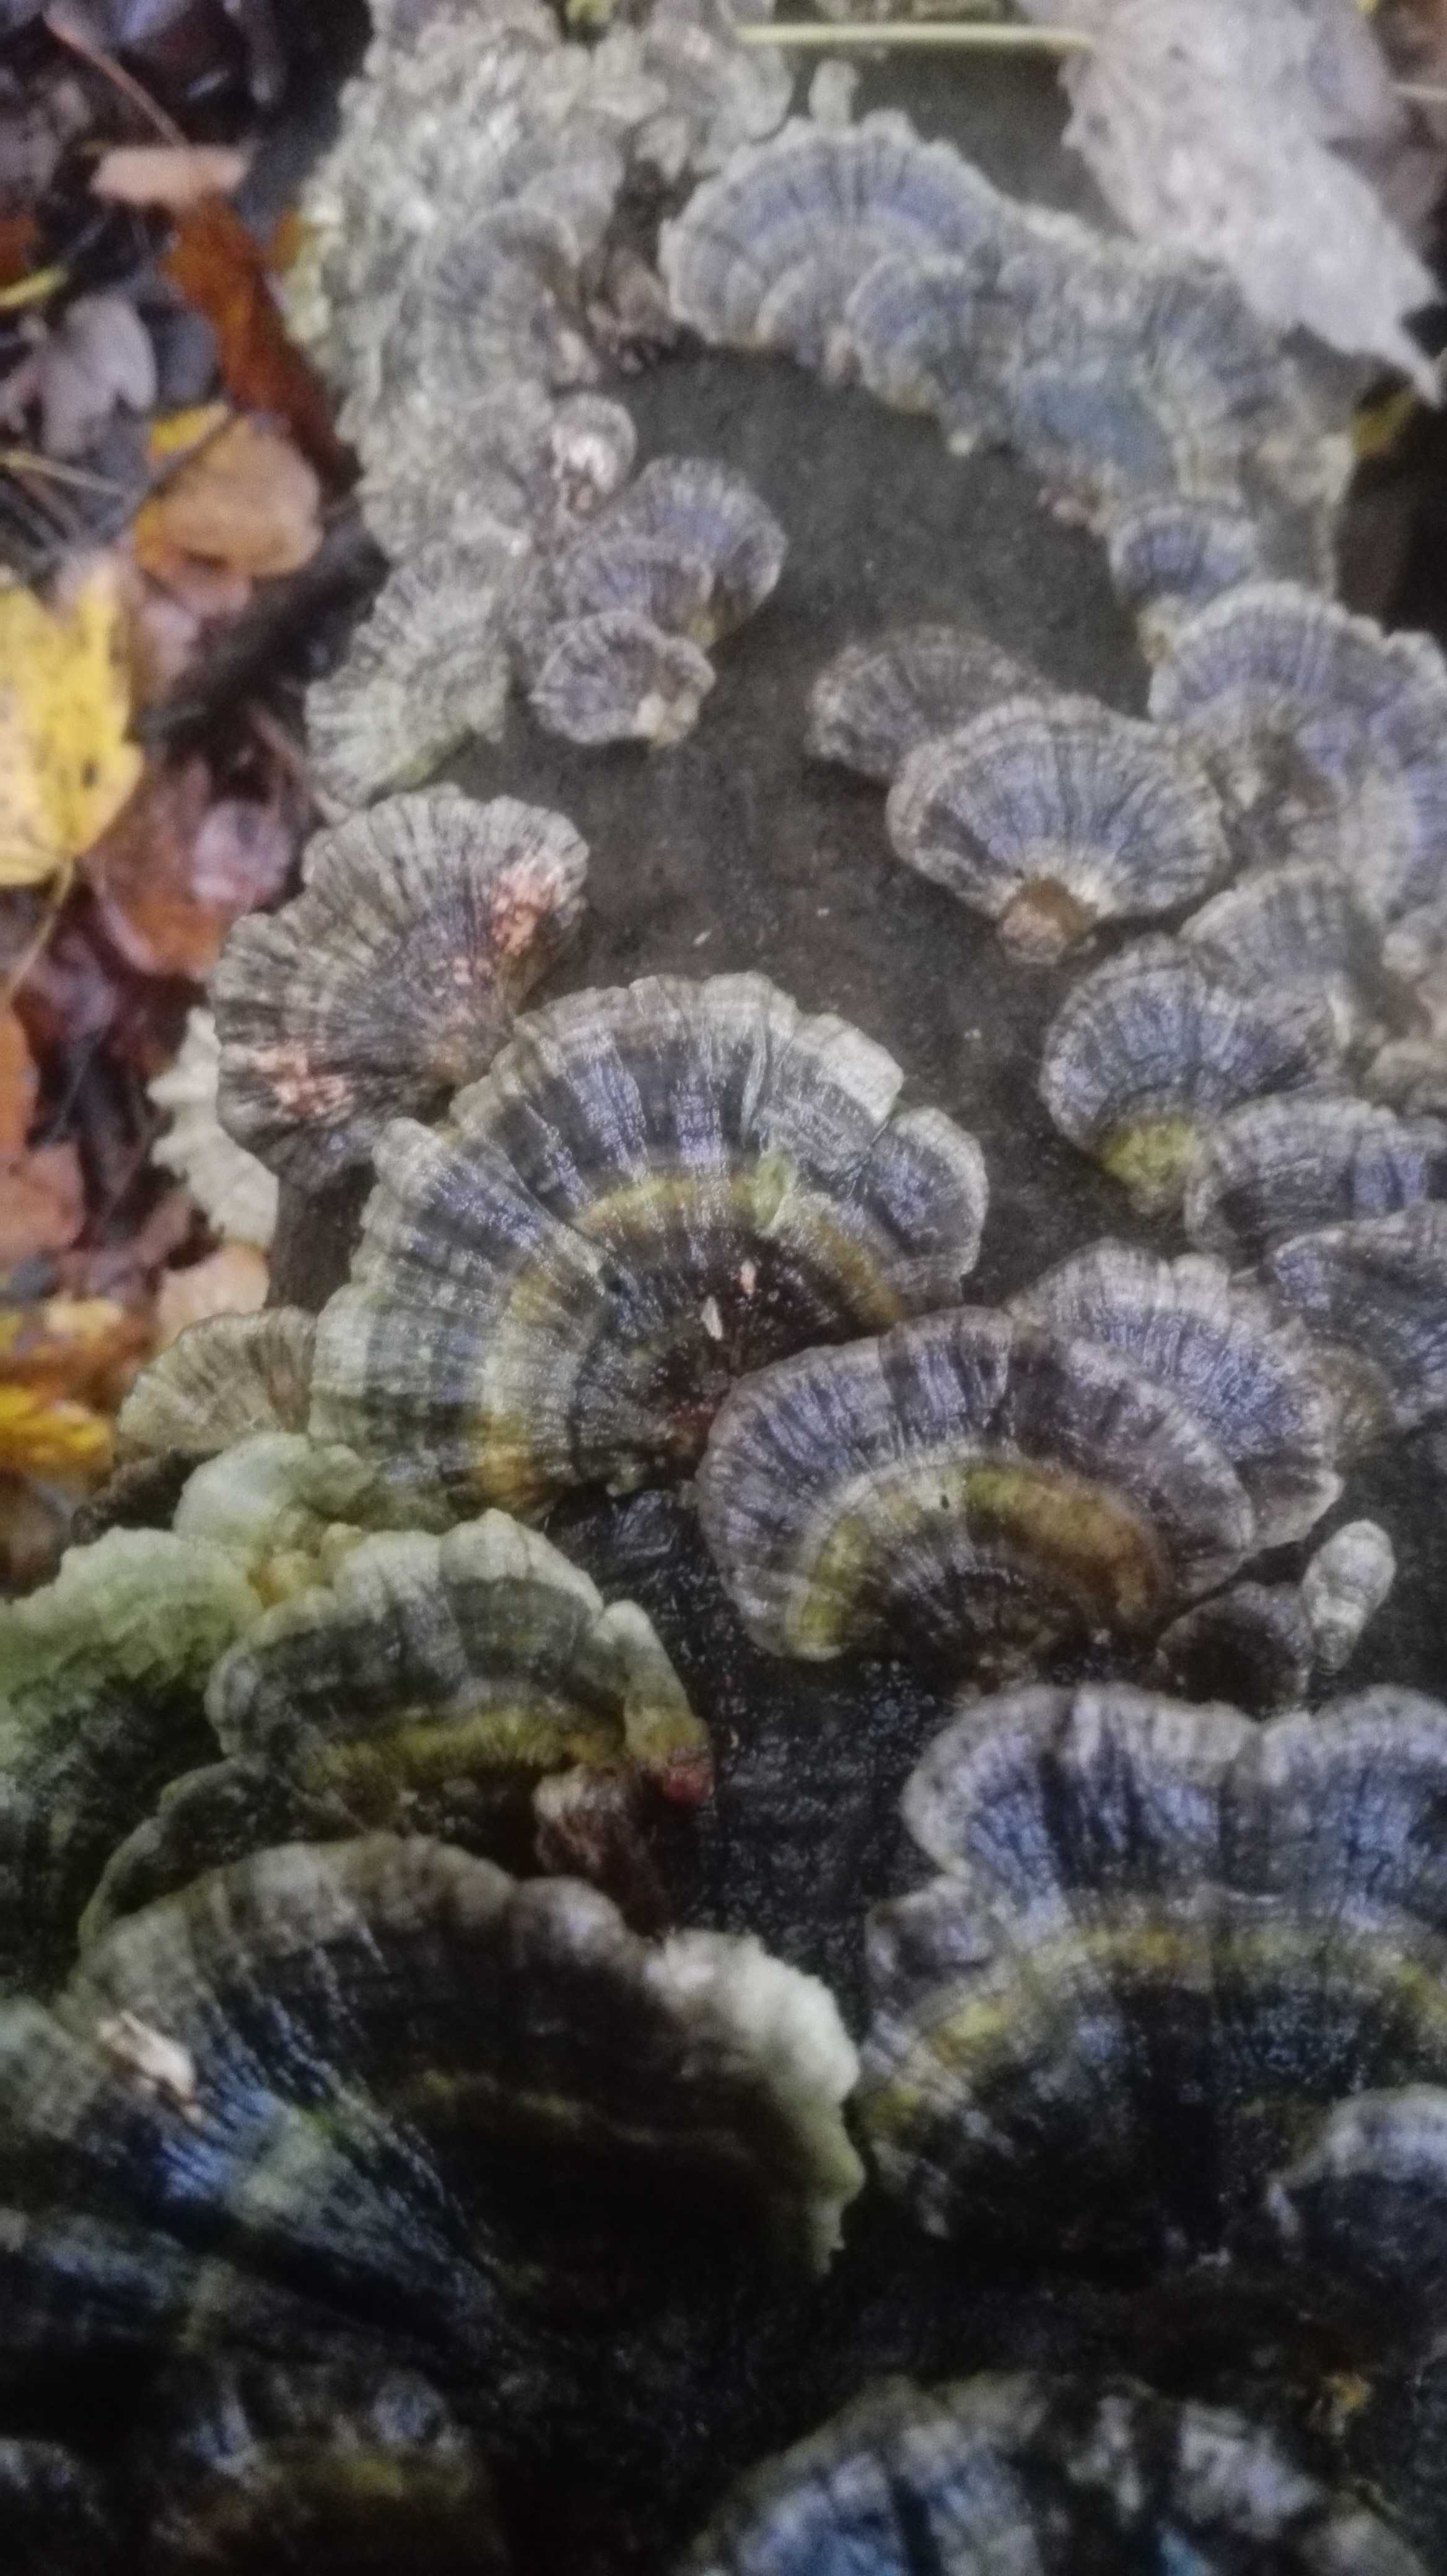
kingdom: Fungi
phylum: Basidiomycota
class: Agaricomycetes
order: Polyporales
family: Polyporaceae
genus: Trametes
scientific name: Trametes versicolor
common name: broget læderporesvamp
